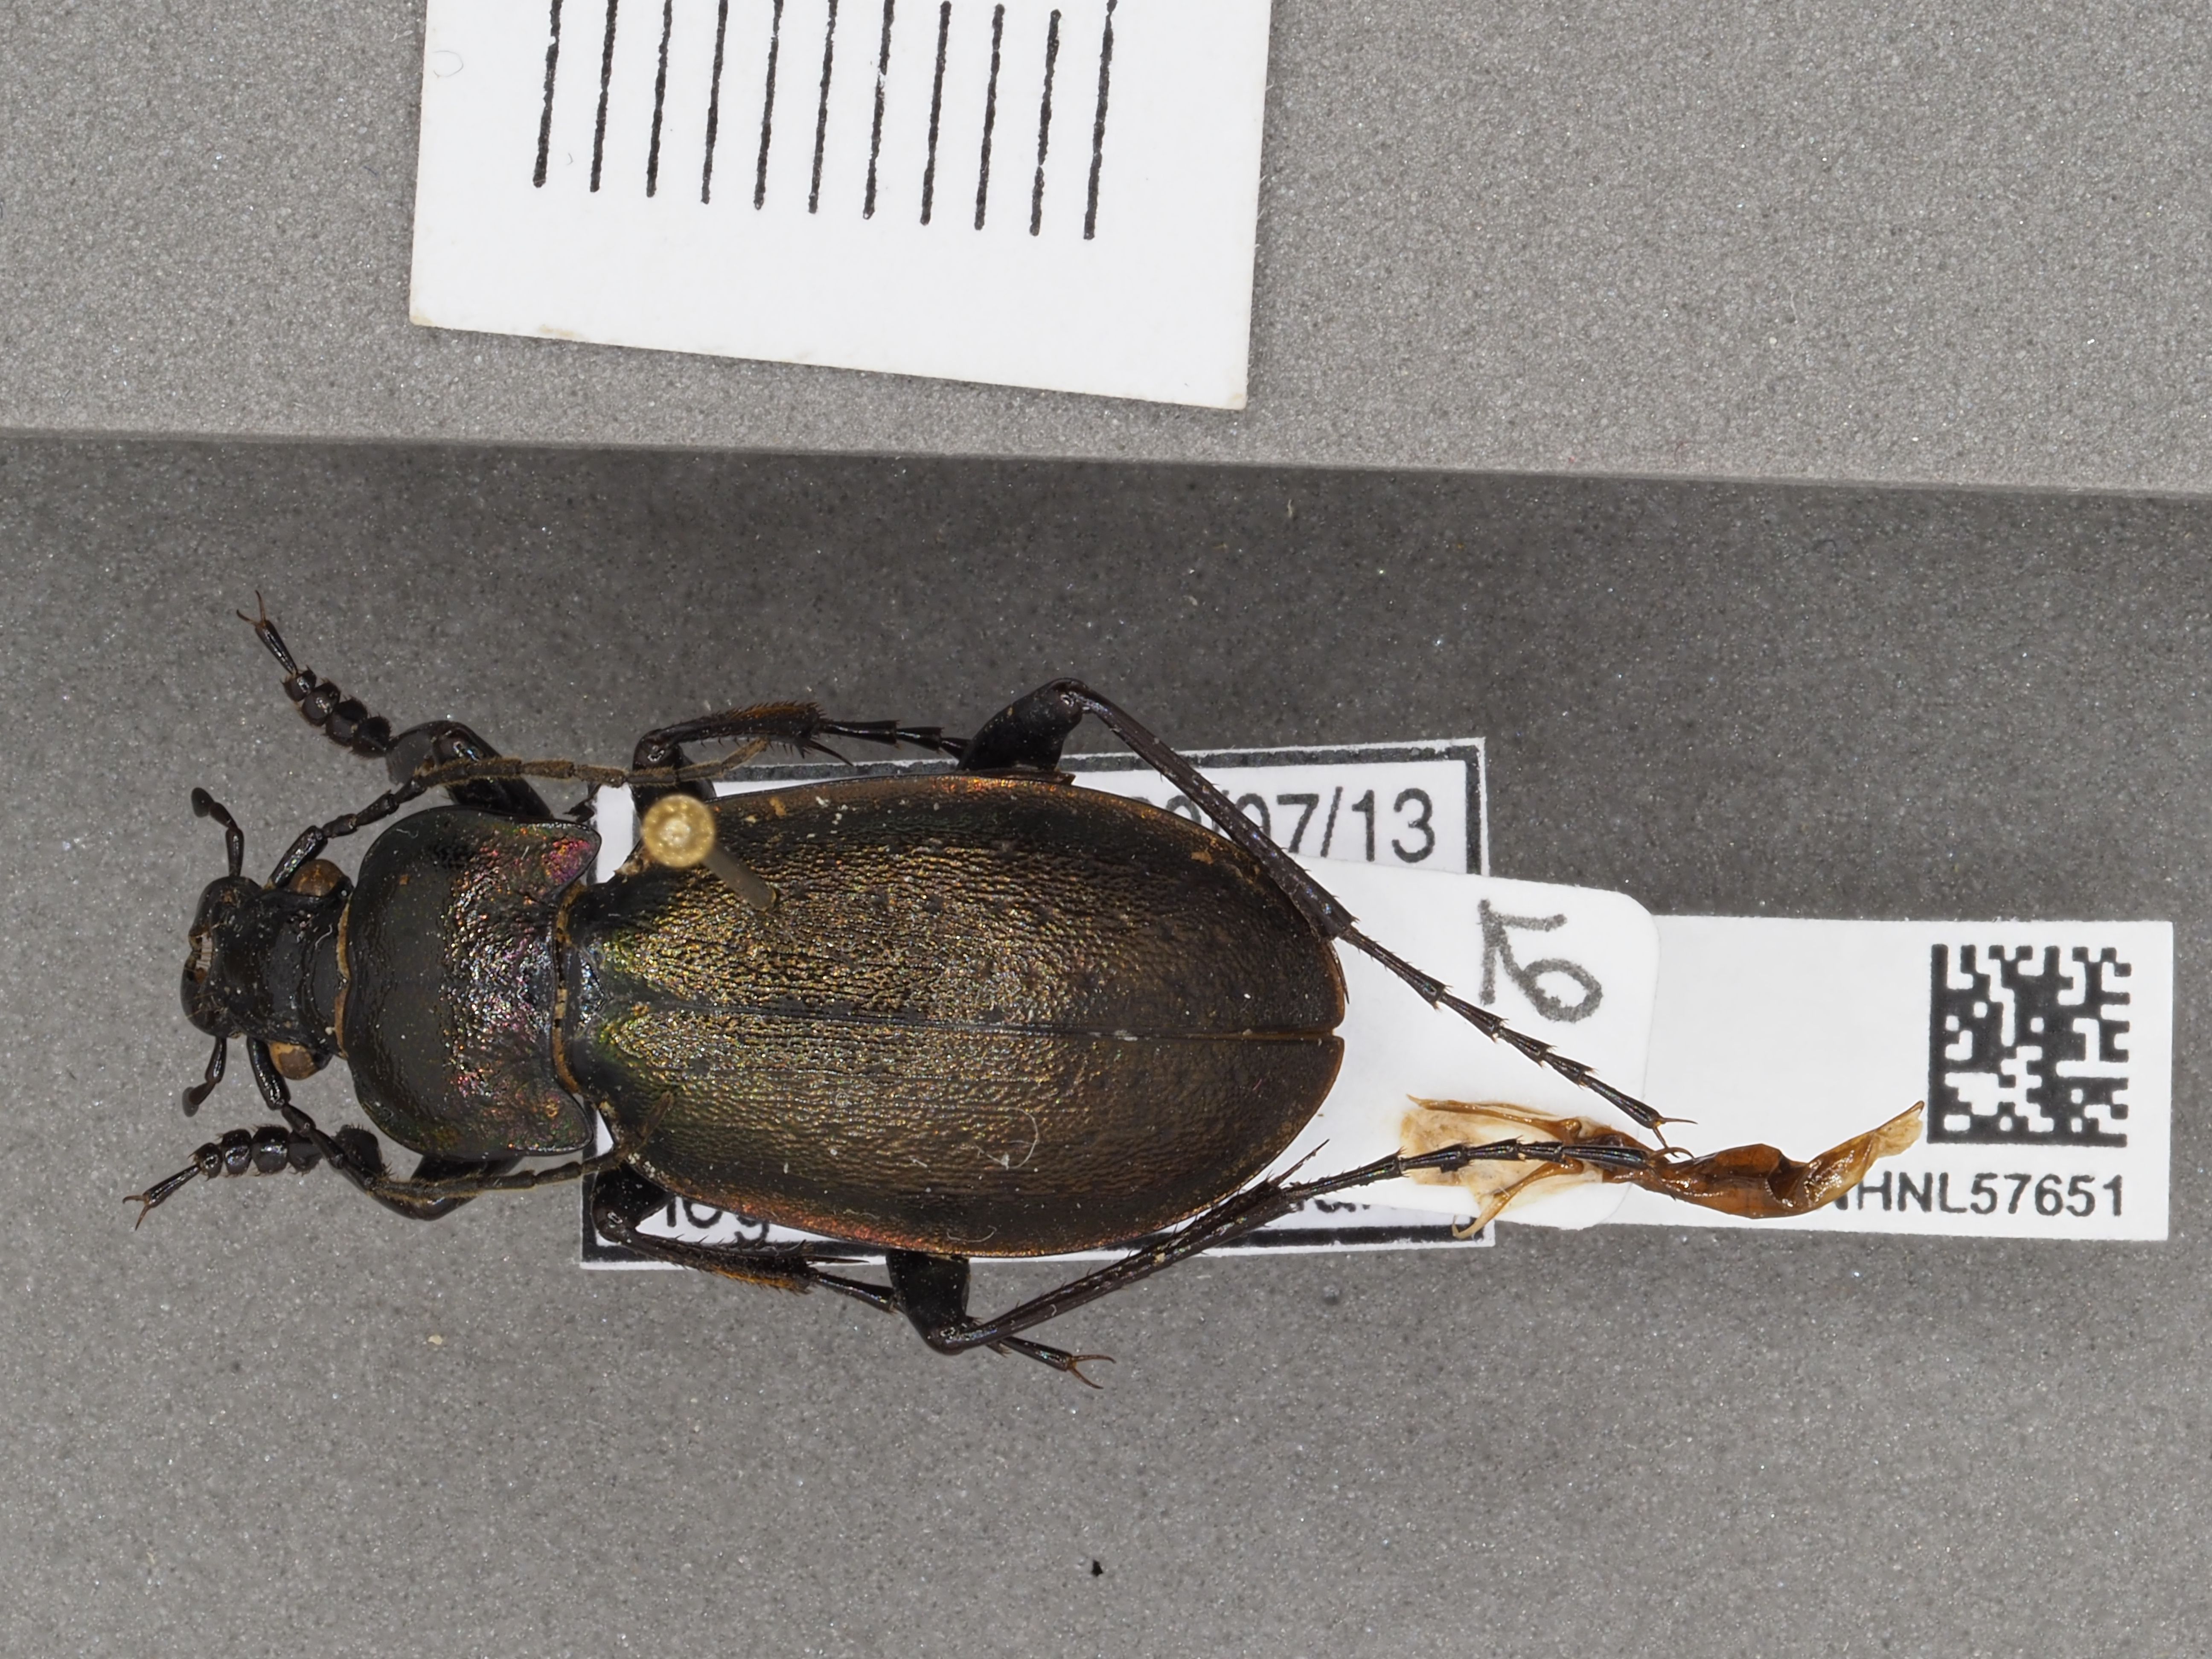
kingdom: Animalia
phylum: Arthropoda
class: Insecta
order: Coleoptera
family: Carabidae
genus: Carabus
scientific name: Carabus nemoralis
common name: European ground beetle
